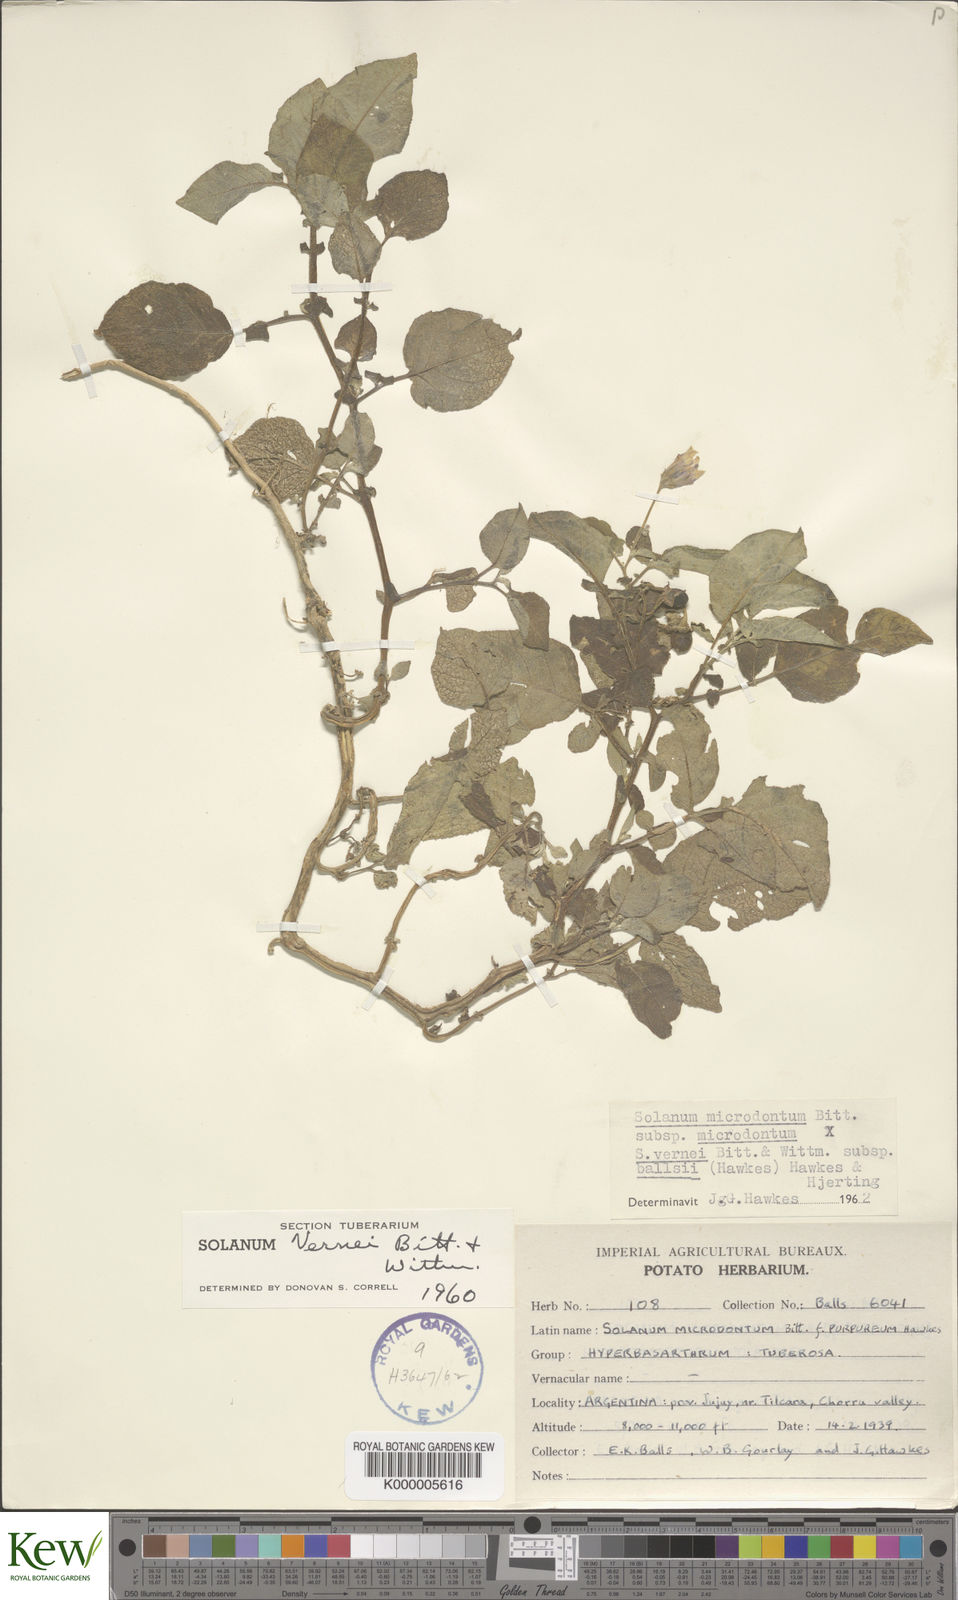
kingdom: Plantae
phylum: Tracheophyta
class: Magnoliopsida
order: Solanales
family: Solanaceae
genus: Solanum
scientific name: Solanum microdontum
